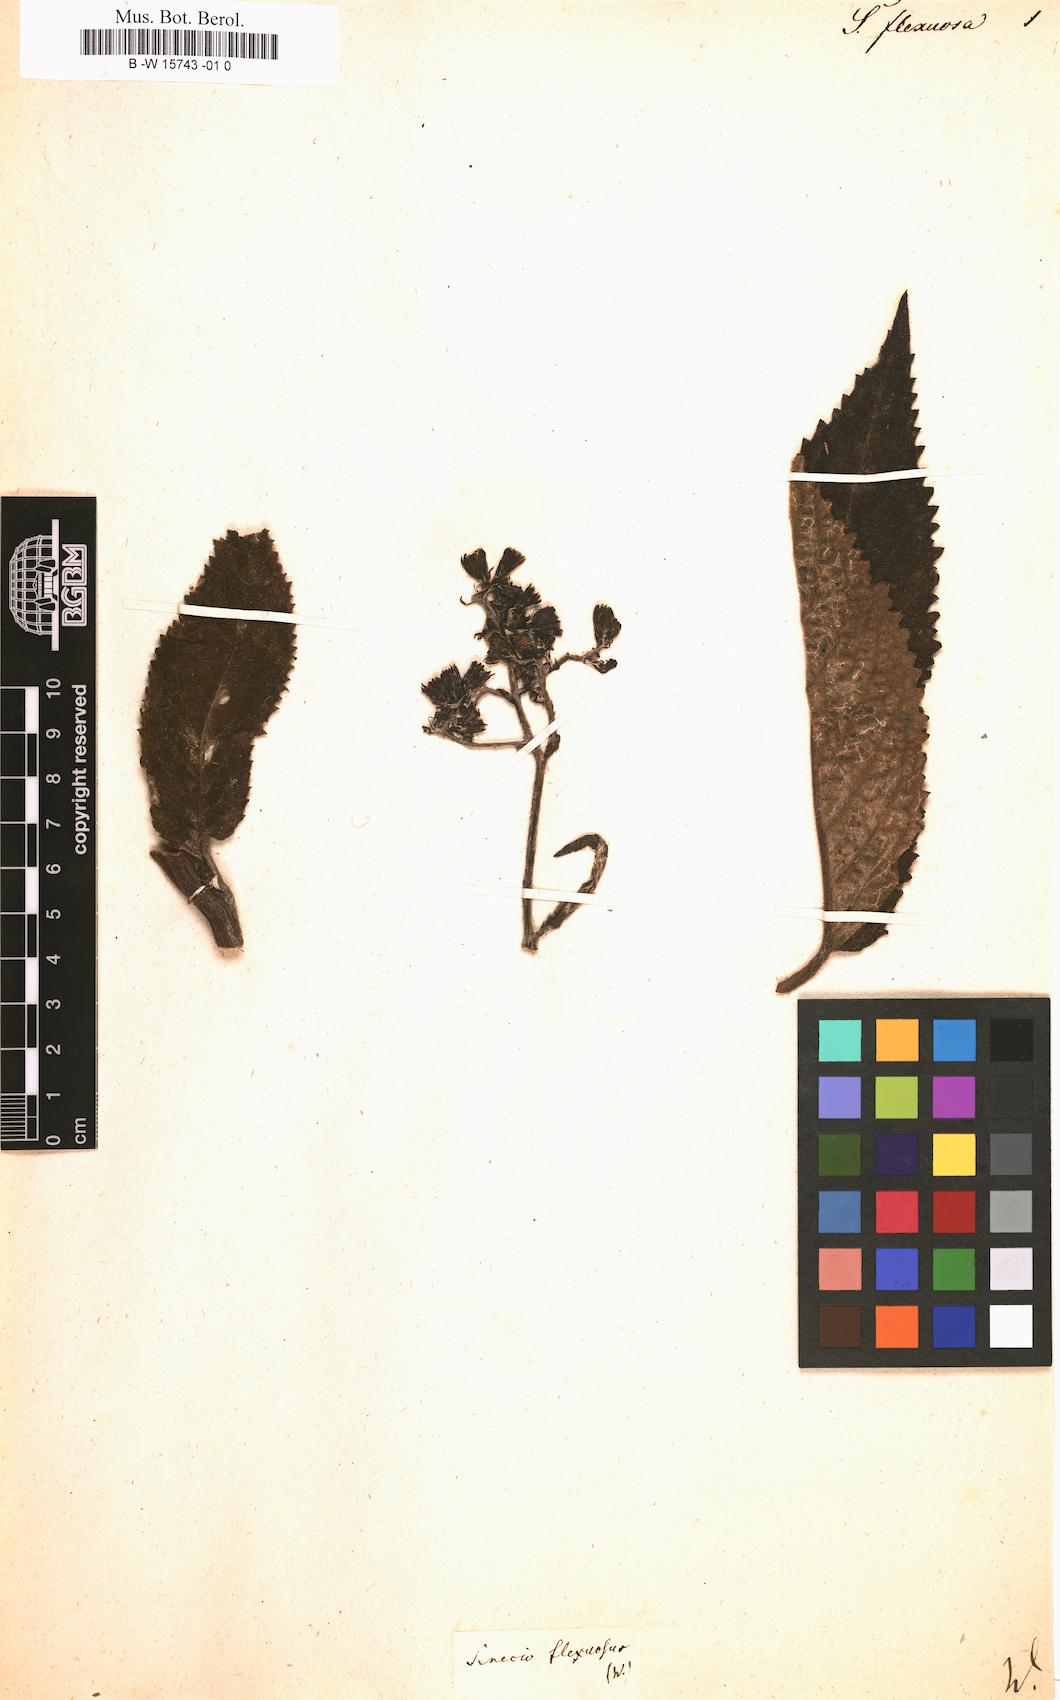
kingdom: Plantae
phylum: Tracheophyta
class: Magnoliopsida
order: Asterales
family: Asteraceae
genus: Senecio
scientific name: Senecio flexuosus
